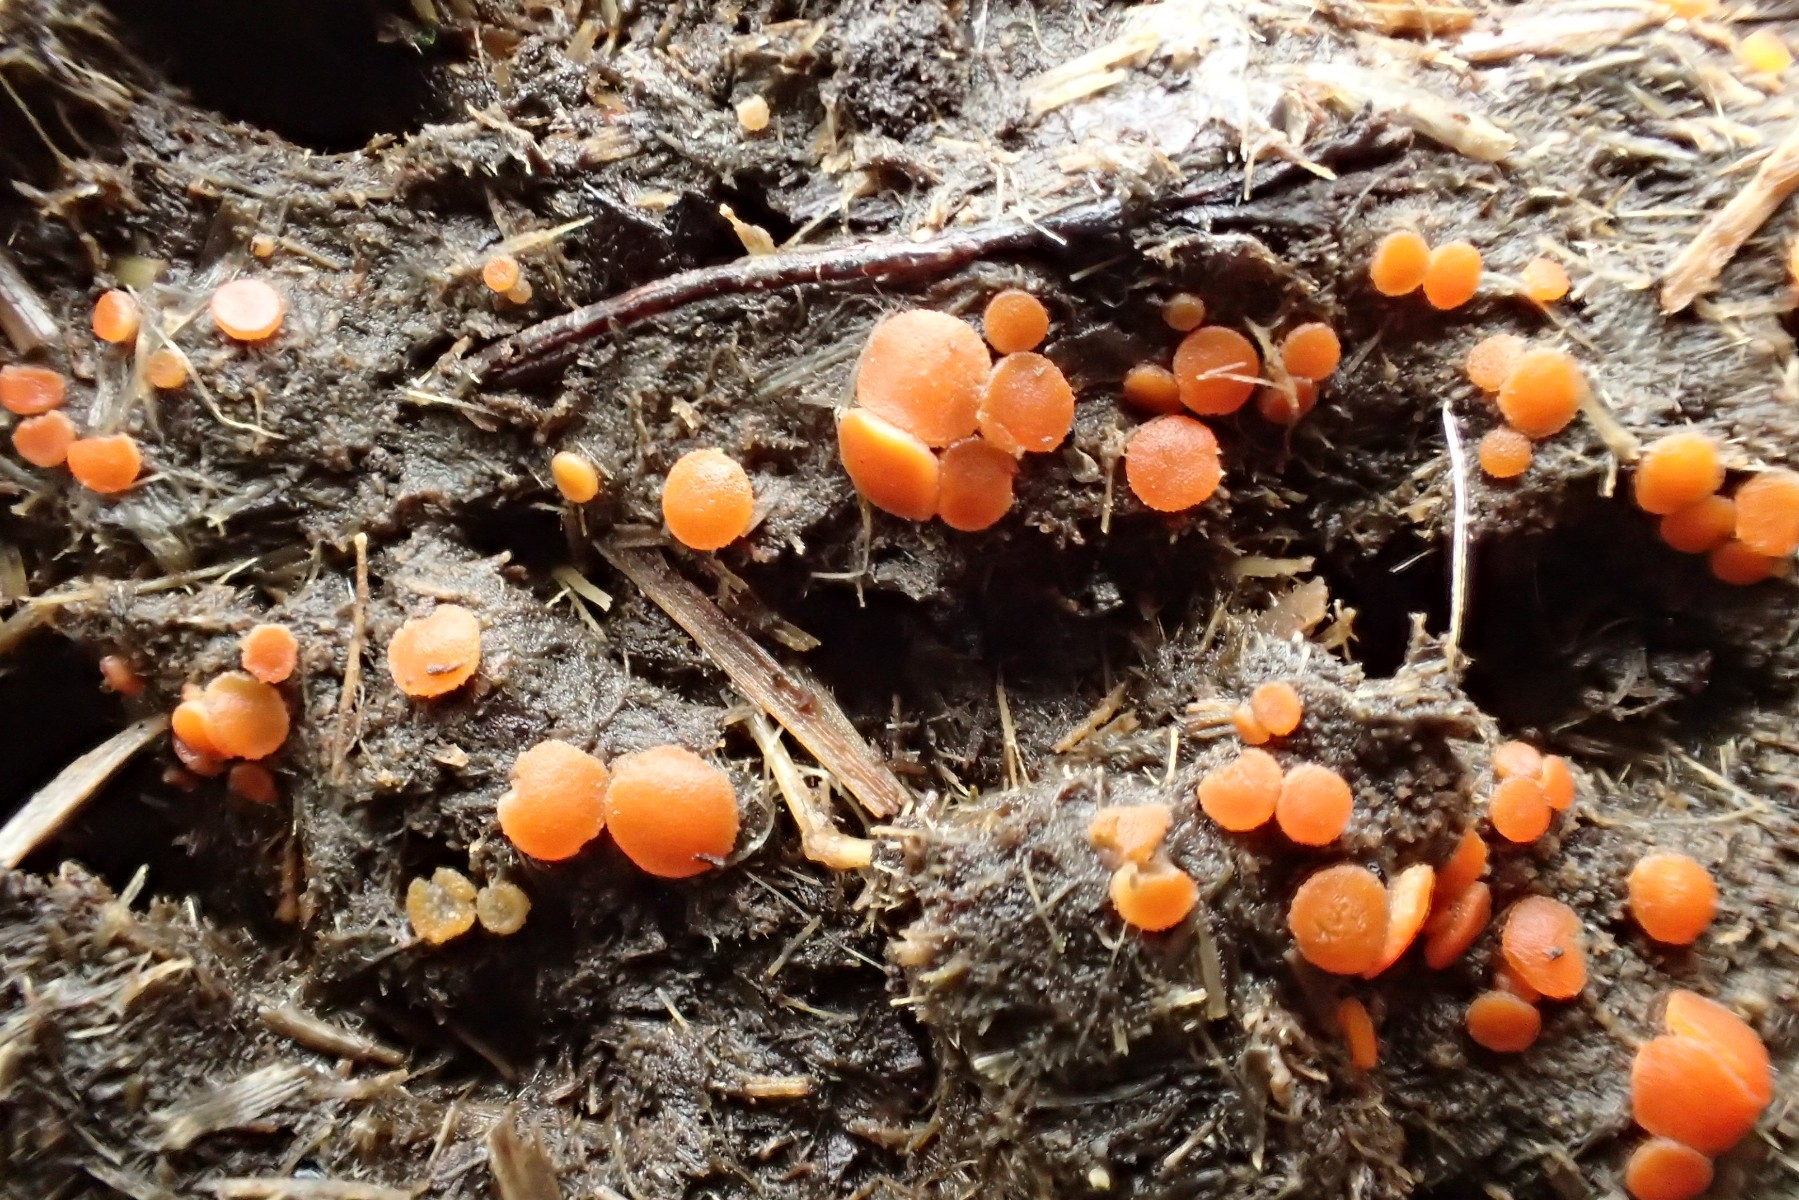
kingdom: Fungi
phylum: Ascomycota
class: Pezizomycetes
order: Pezizales
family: Pyronemataceae
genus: Cheilymenia
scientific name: Cheilymenia granulata
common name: møgbæger
